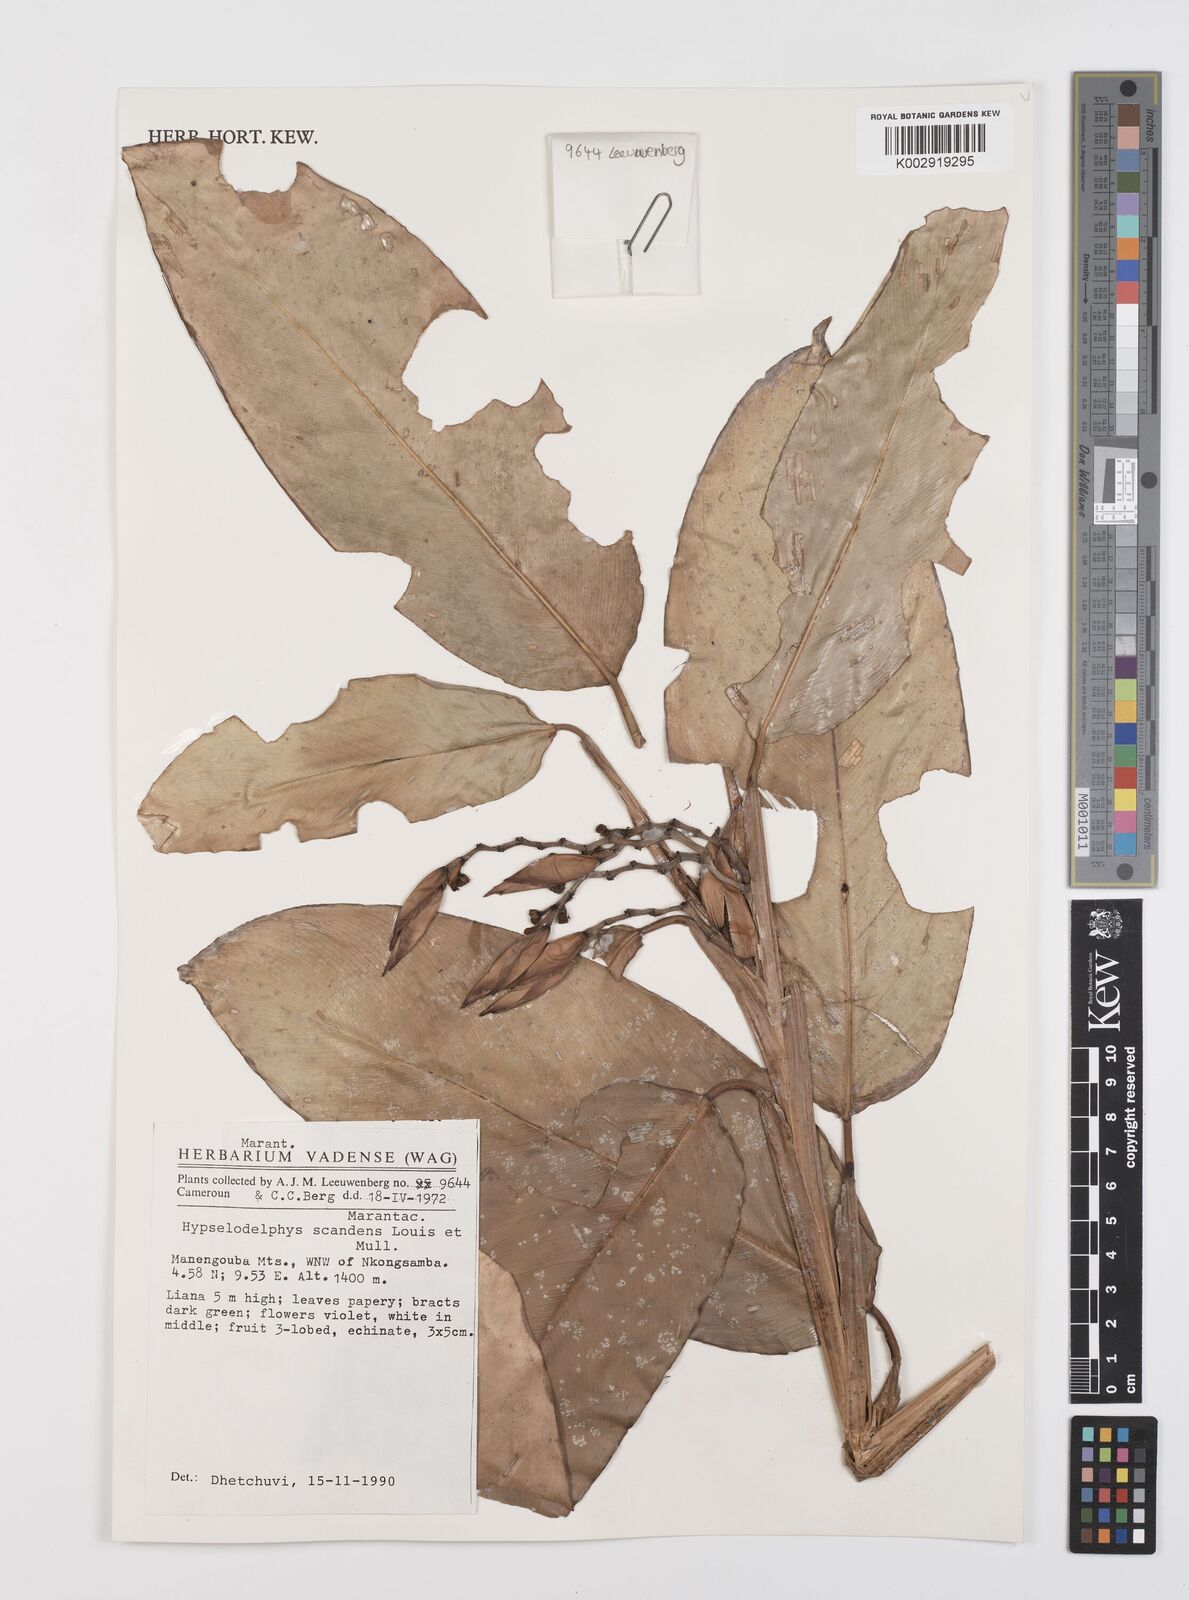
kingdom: Plantae
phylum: Tracheophyta
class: Liliopsida
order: Zingiberales
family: Marantaceae
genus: Hypselodelphys
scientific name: Hypselodelphys scandens
